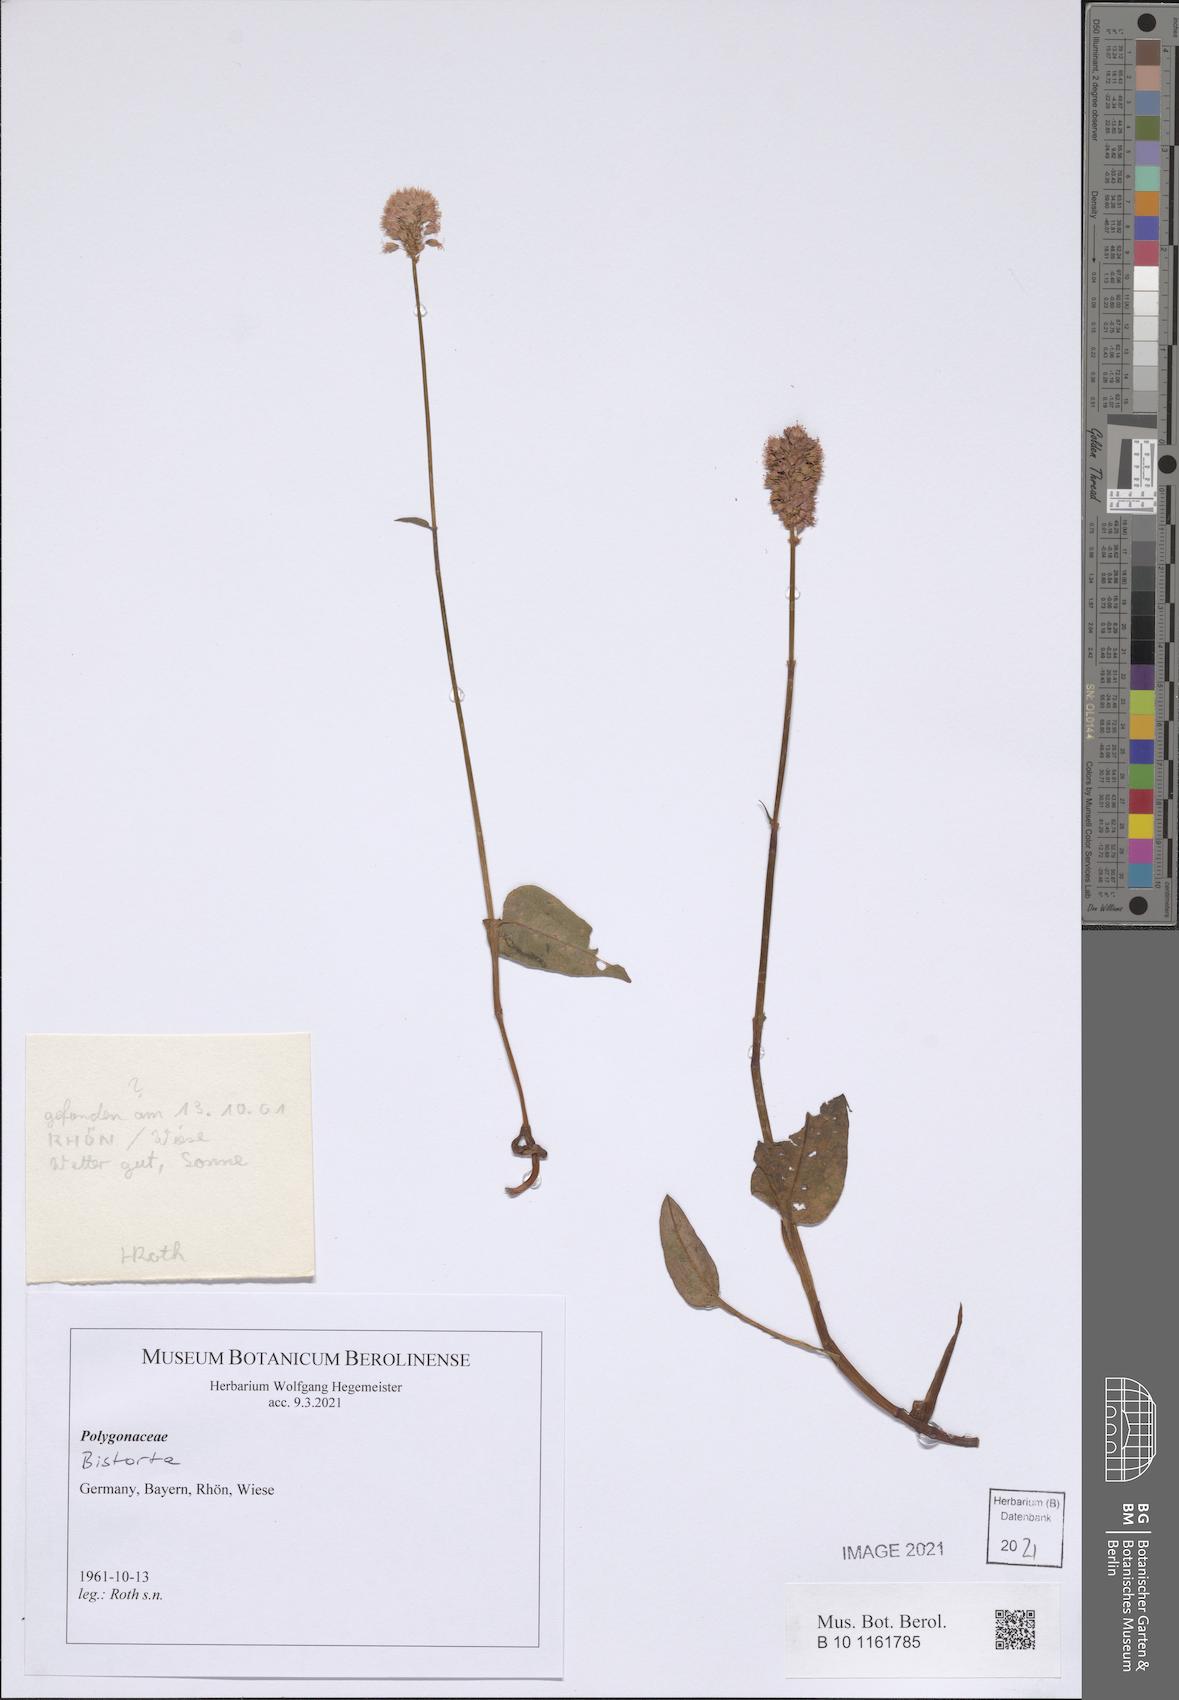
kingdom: Plantae
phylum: Tracheophyta
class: Magnoliopsida
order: Caryophyllales
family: Polygonaceae
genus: Bistorta
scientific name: Bistorta
